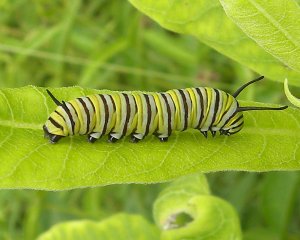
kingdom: Animalia
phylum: Arthropoda
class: Insecta
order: Lepidoptera
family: Nymphalidae
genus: Danaus
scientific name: Danaus plexippus
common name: Monarch
